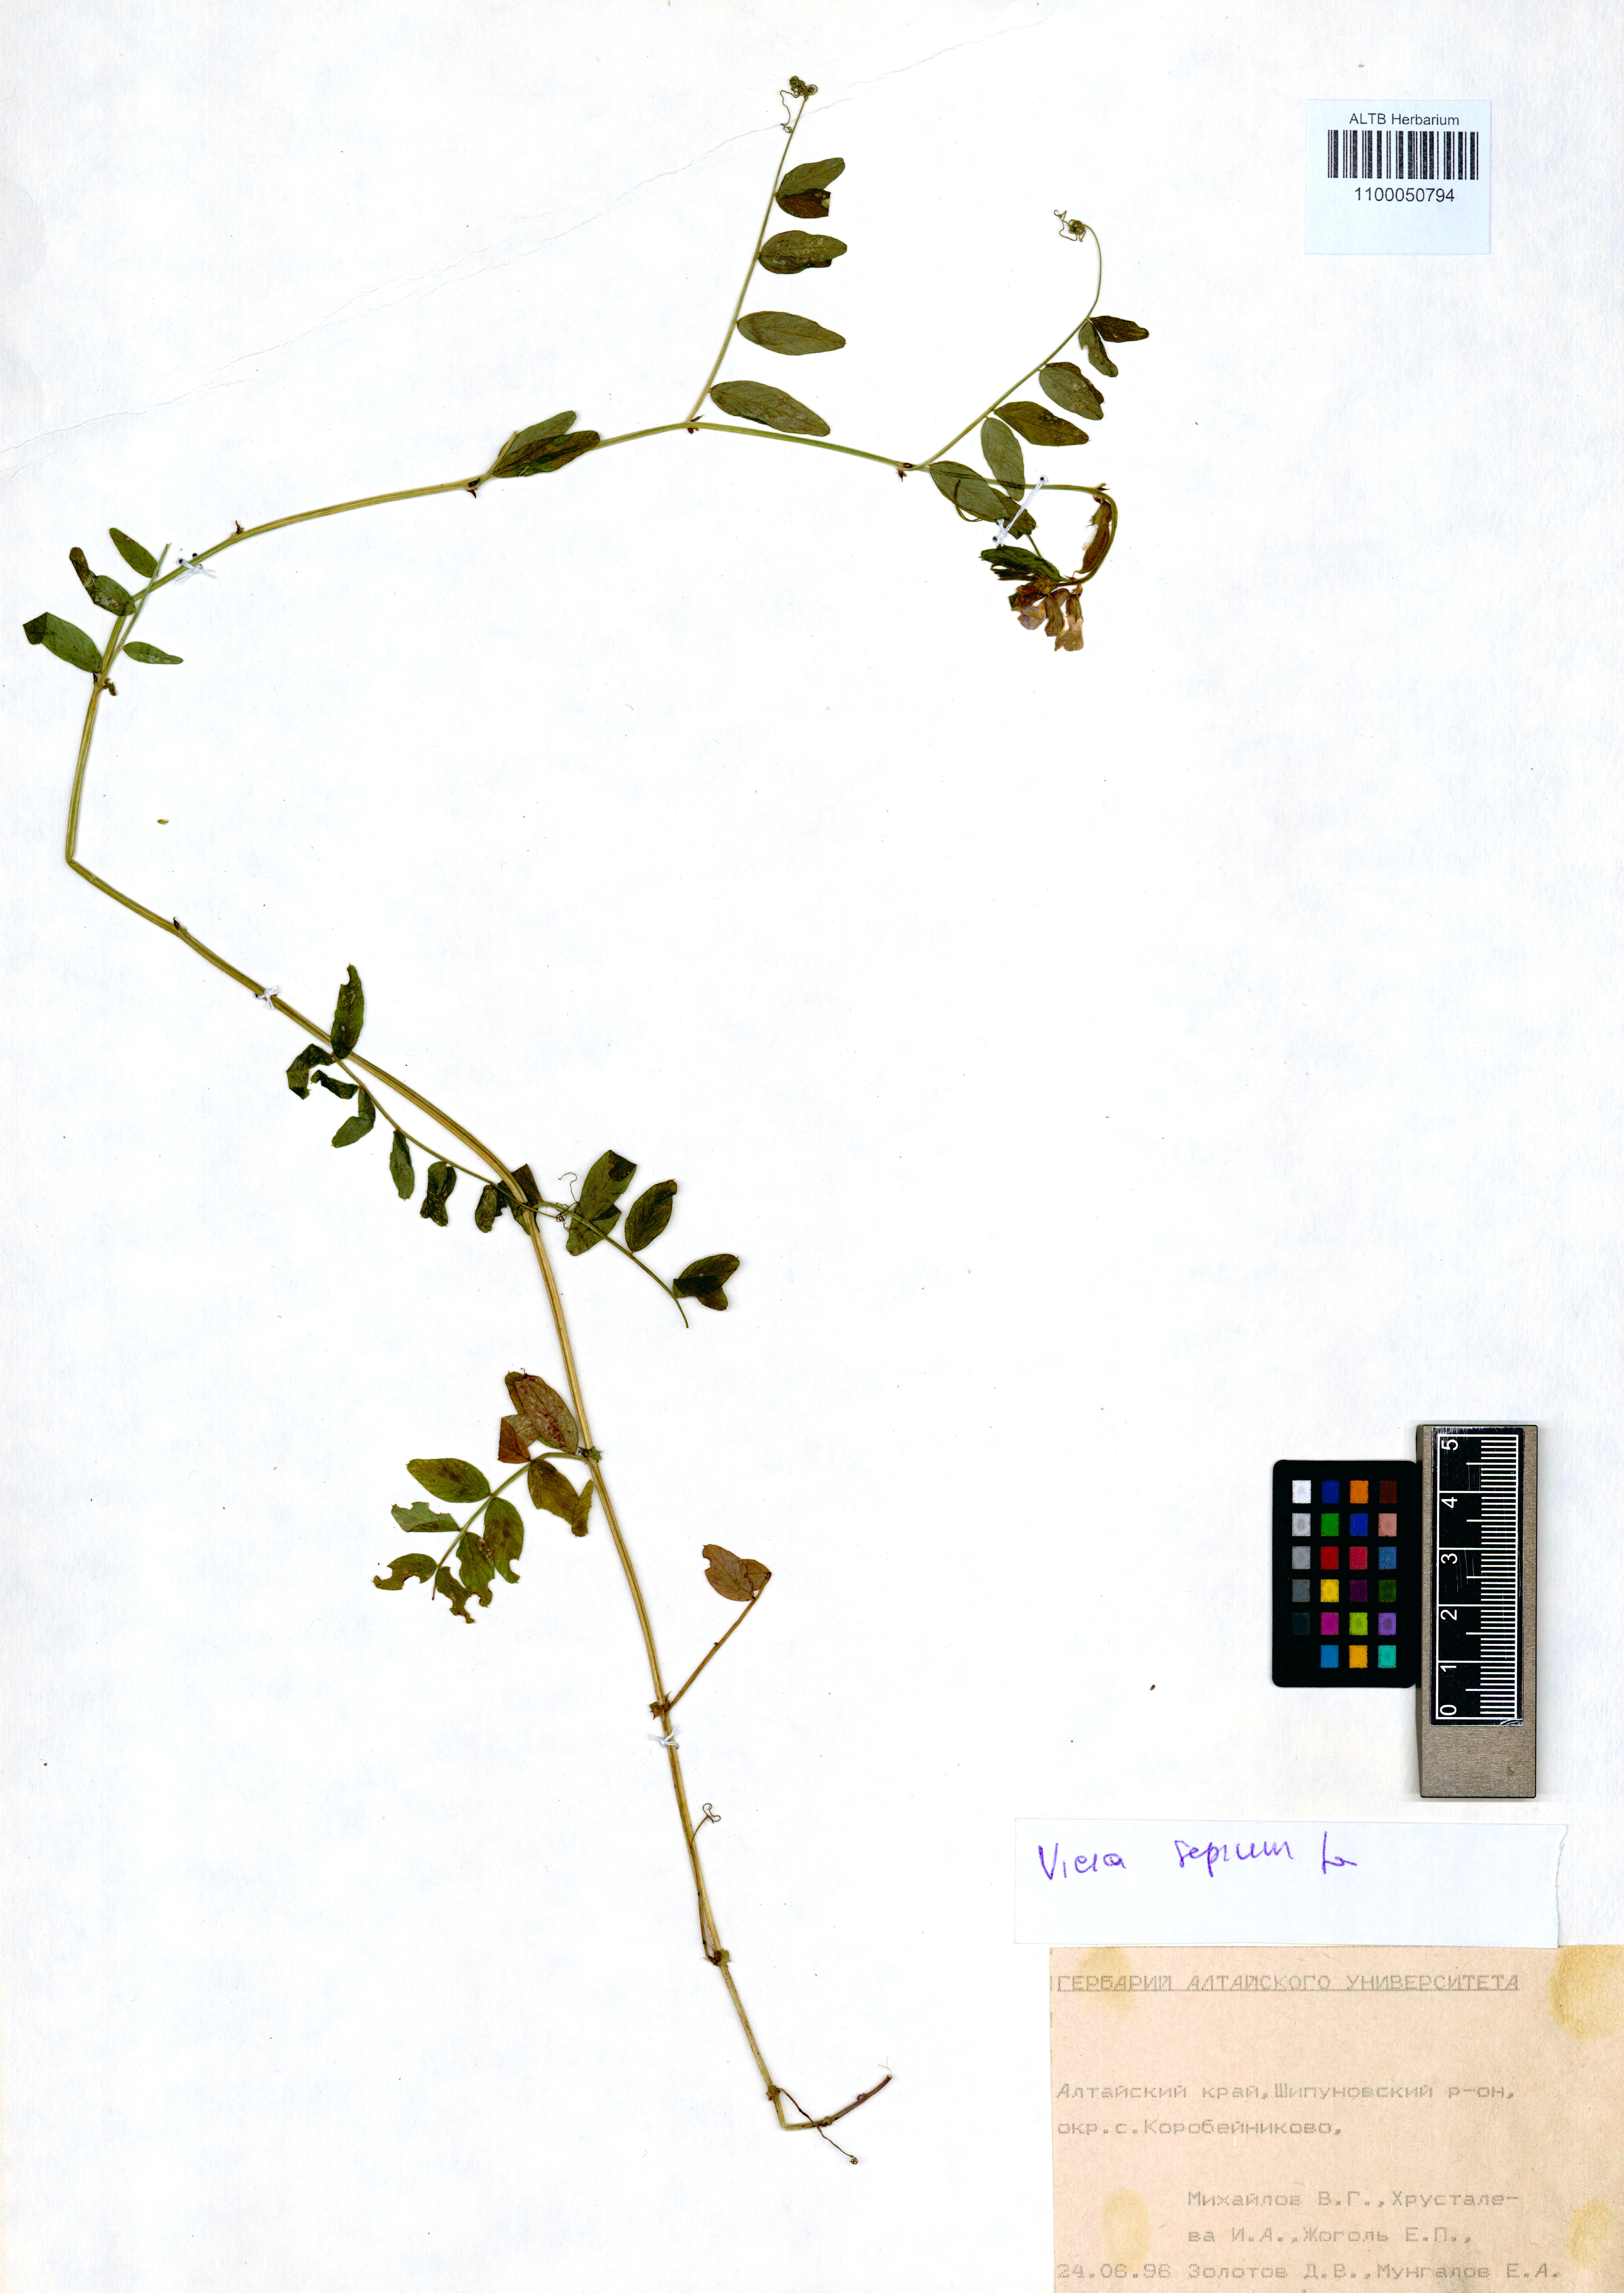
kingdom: Plantae
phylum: Tracheophyta
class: Magnoliopsida
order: Fabales
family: Fabaceae
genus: Vicia
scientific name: Vicia sepium
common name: Bush vetch
